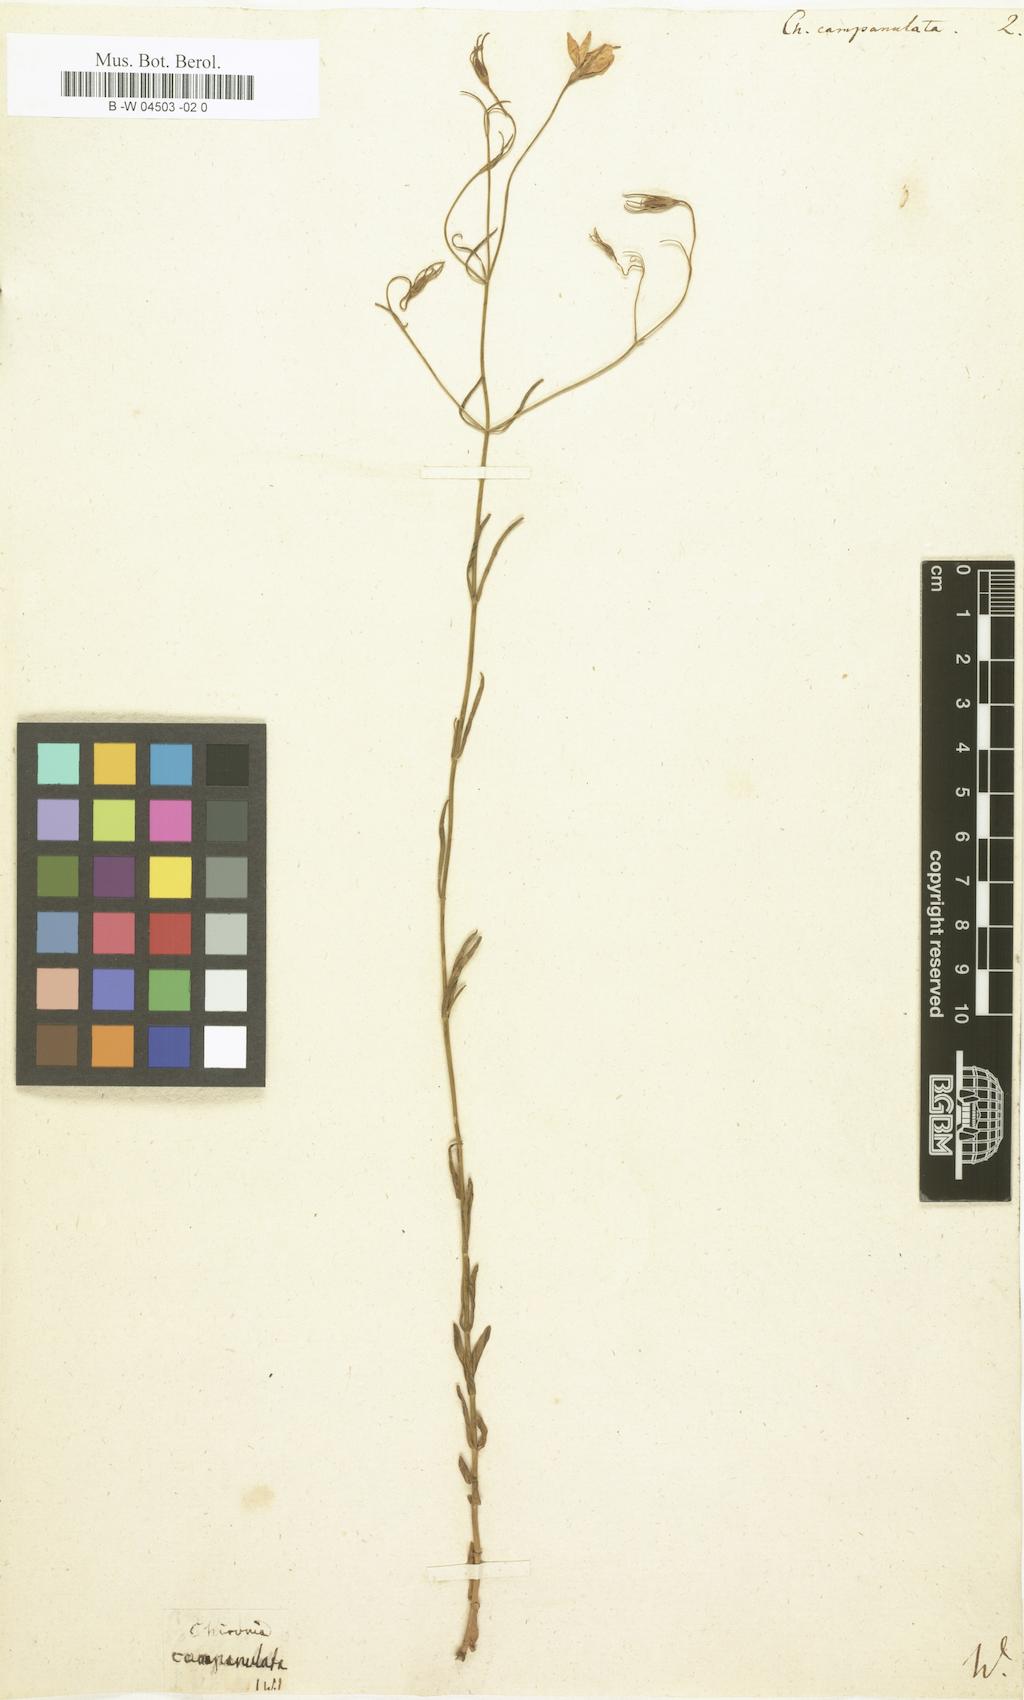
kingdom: Plantae
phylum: Tracheophyta
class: Magnoliopsida
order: Gentianales
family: Gentianaceae
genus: Sabatia
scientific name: Sabatia campanulata
